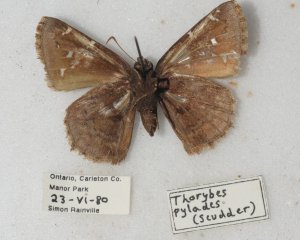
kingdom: Animalia
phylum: Arthropoda
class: Insecta
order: Lepidoptera
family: Hesperiidae
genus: Autochton
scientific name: Autochton
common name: Northern Cloudywing
